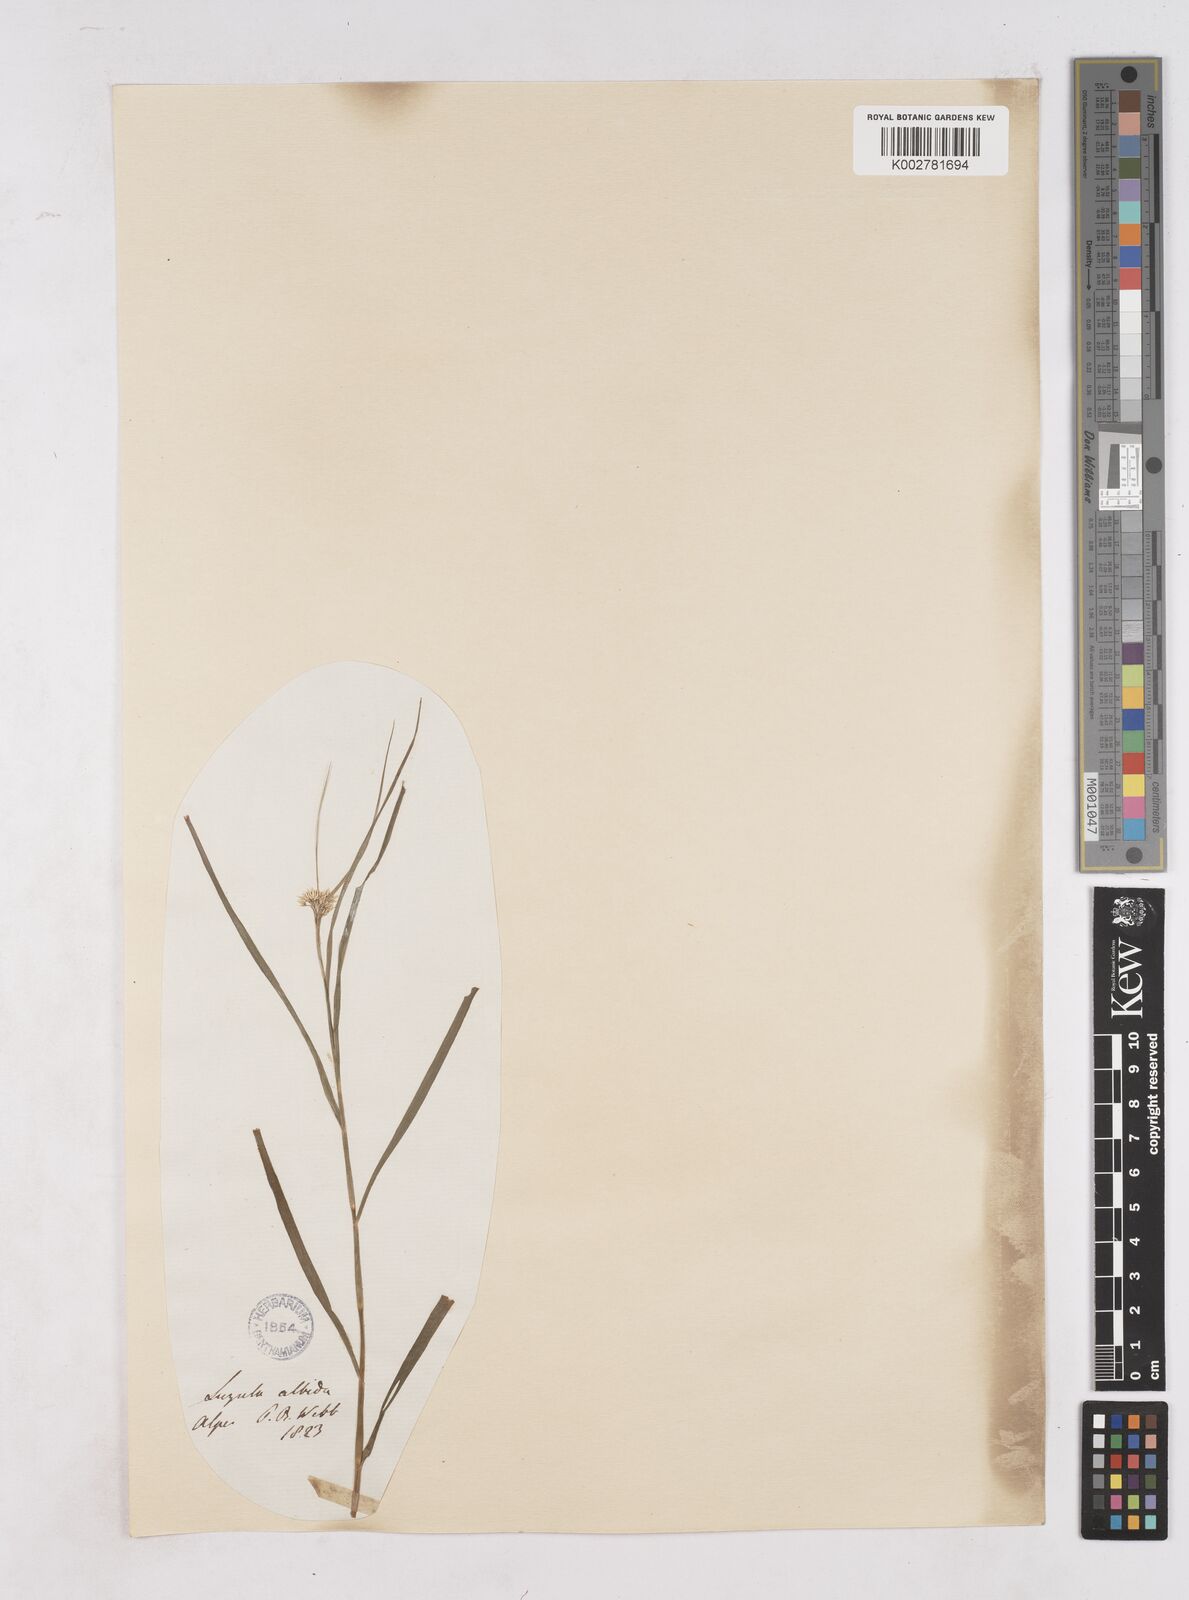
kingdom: Plantae
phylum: Tracheophyta
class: Liliopsida
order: Poales
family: Juncaceae
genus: Luzula
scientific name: Luzula luzuloides
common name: White wood-rush
